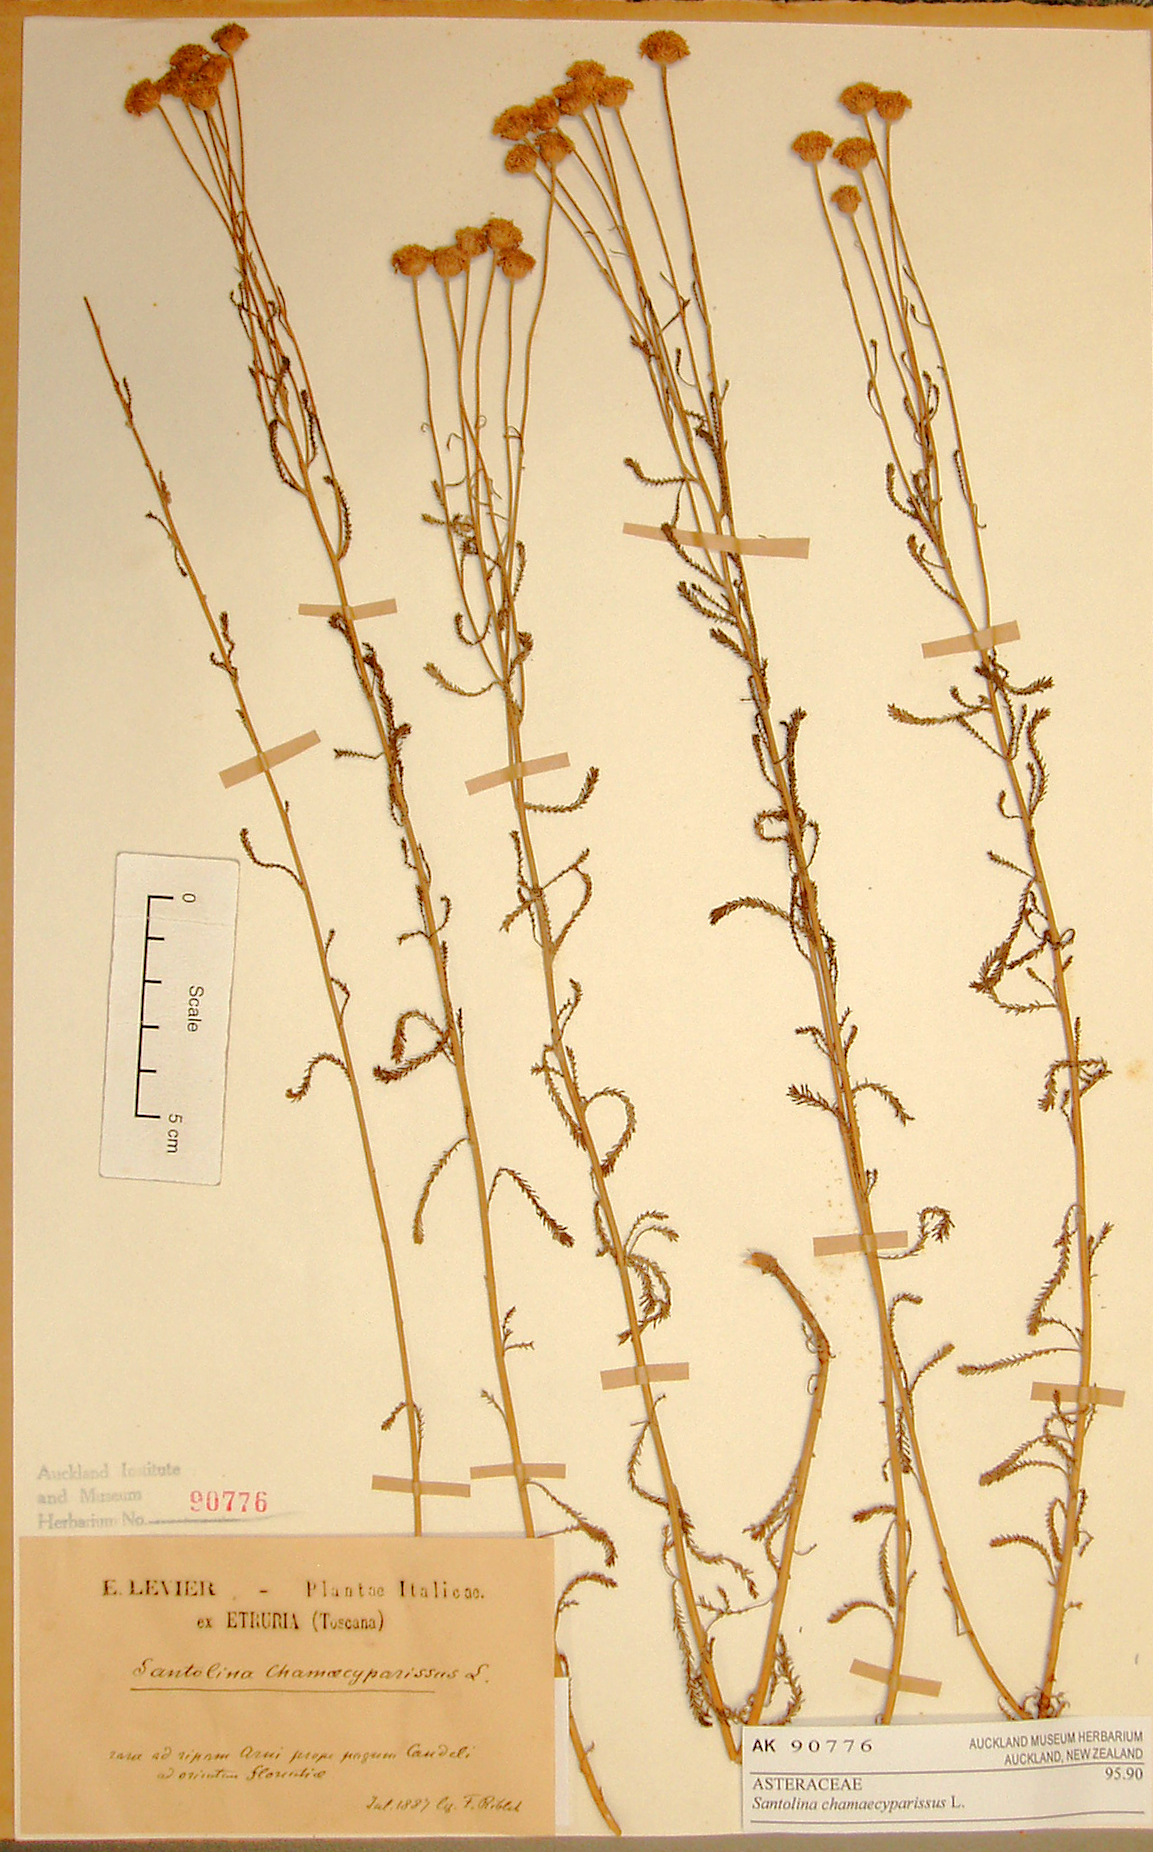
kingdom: Plantae
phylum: Tracheophyta
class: Magnoliopsida
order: Asterales
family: Asteraceae
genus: Santolina
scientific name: Santolina chamaecyparissus
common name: Lavender-cotton
